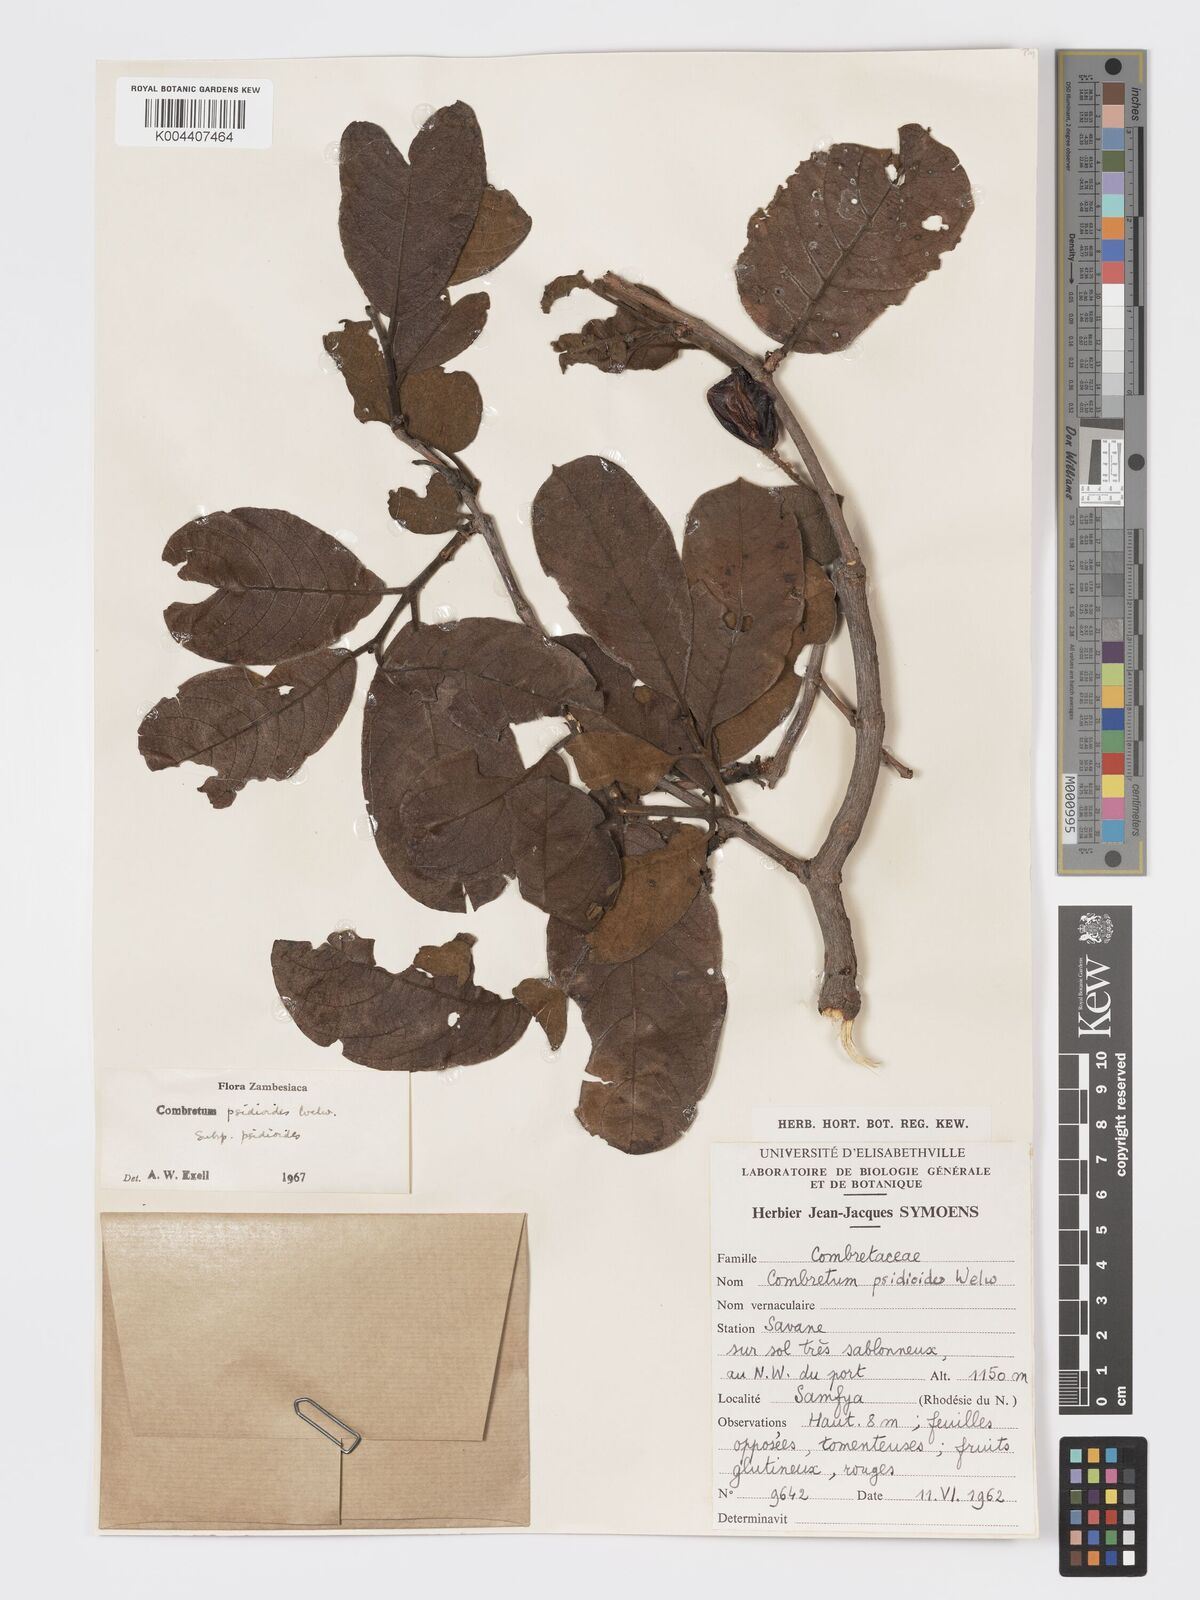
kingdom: Plantae
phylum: Tracheophyta
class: Magnoliopsida
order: Myrtales
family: Combretaceae
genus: Combretum
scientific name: Combretum psidioides
